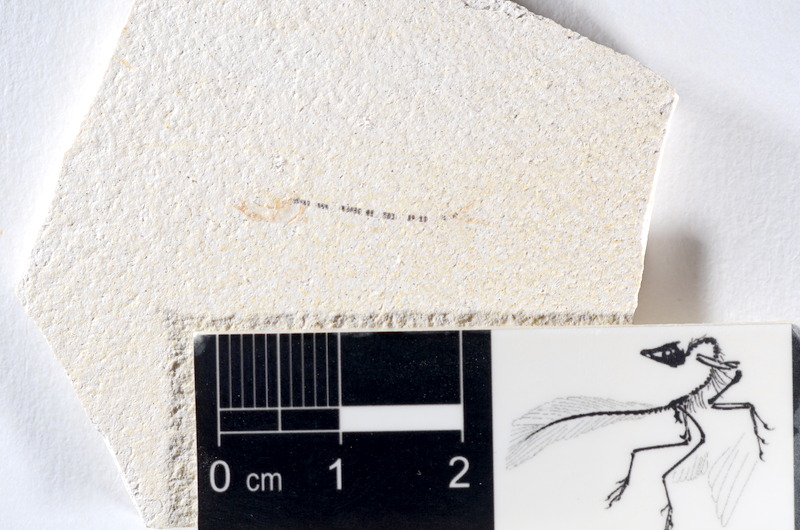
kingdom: Animalia
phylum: Chordata
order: Salmoniformes
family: Orthogonikleithridae
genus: Orthogonikleithrus
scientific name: Orthogonikleithrus hoelli
